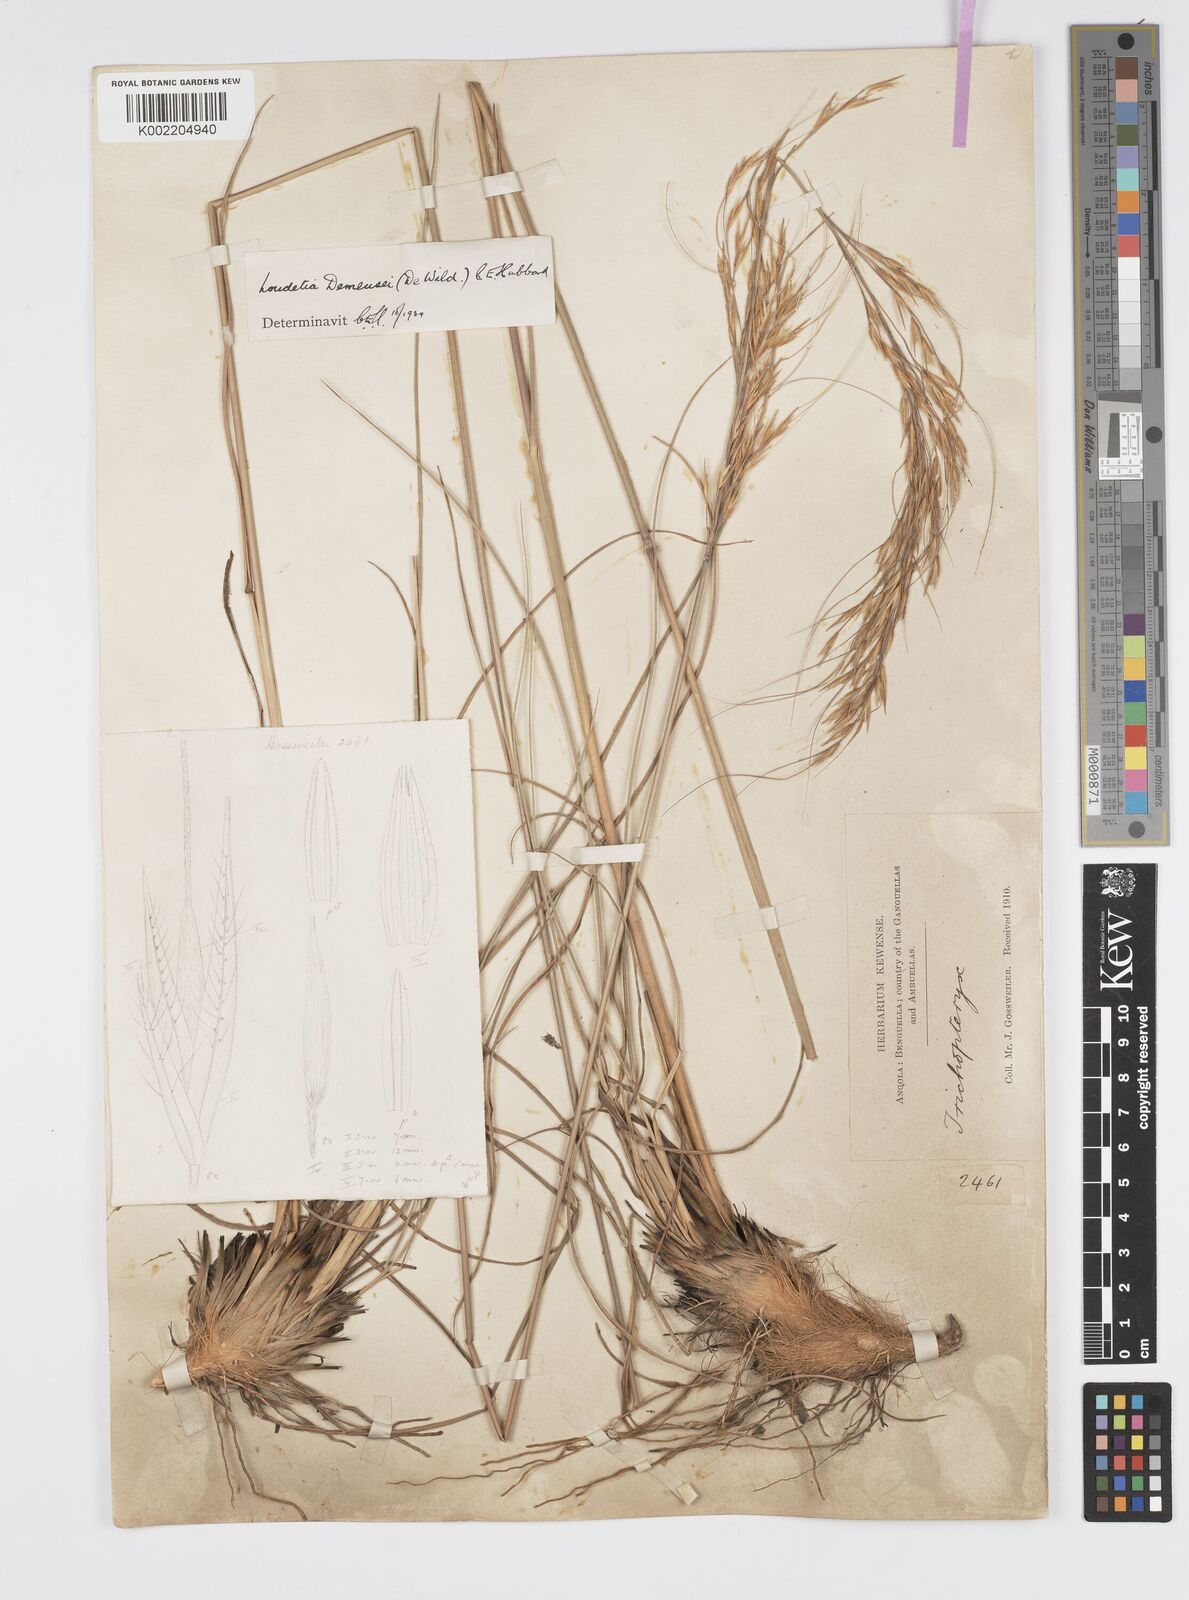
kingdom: Plantae
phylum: Tracheophyta
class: Liliopsida
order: Poales
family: Poaceae
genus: Loudetia
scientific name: Loudetia lanata
